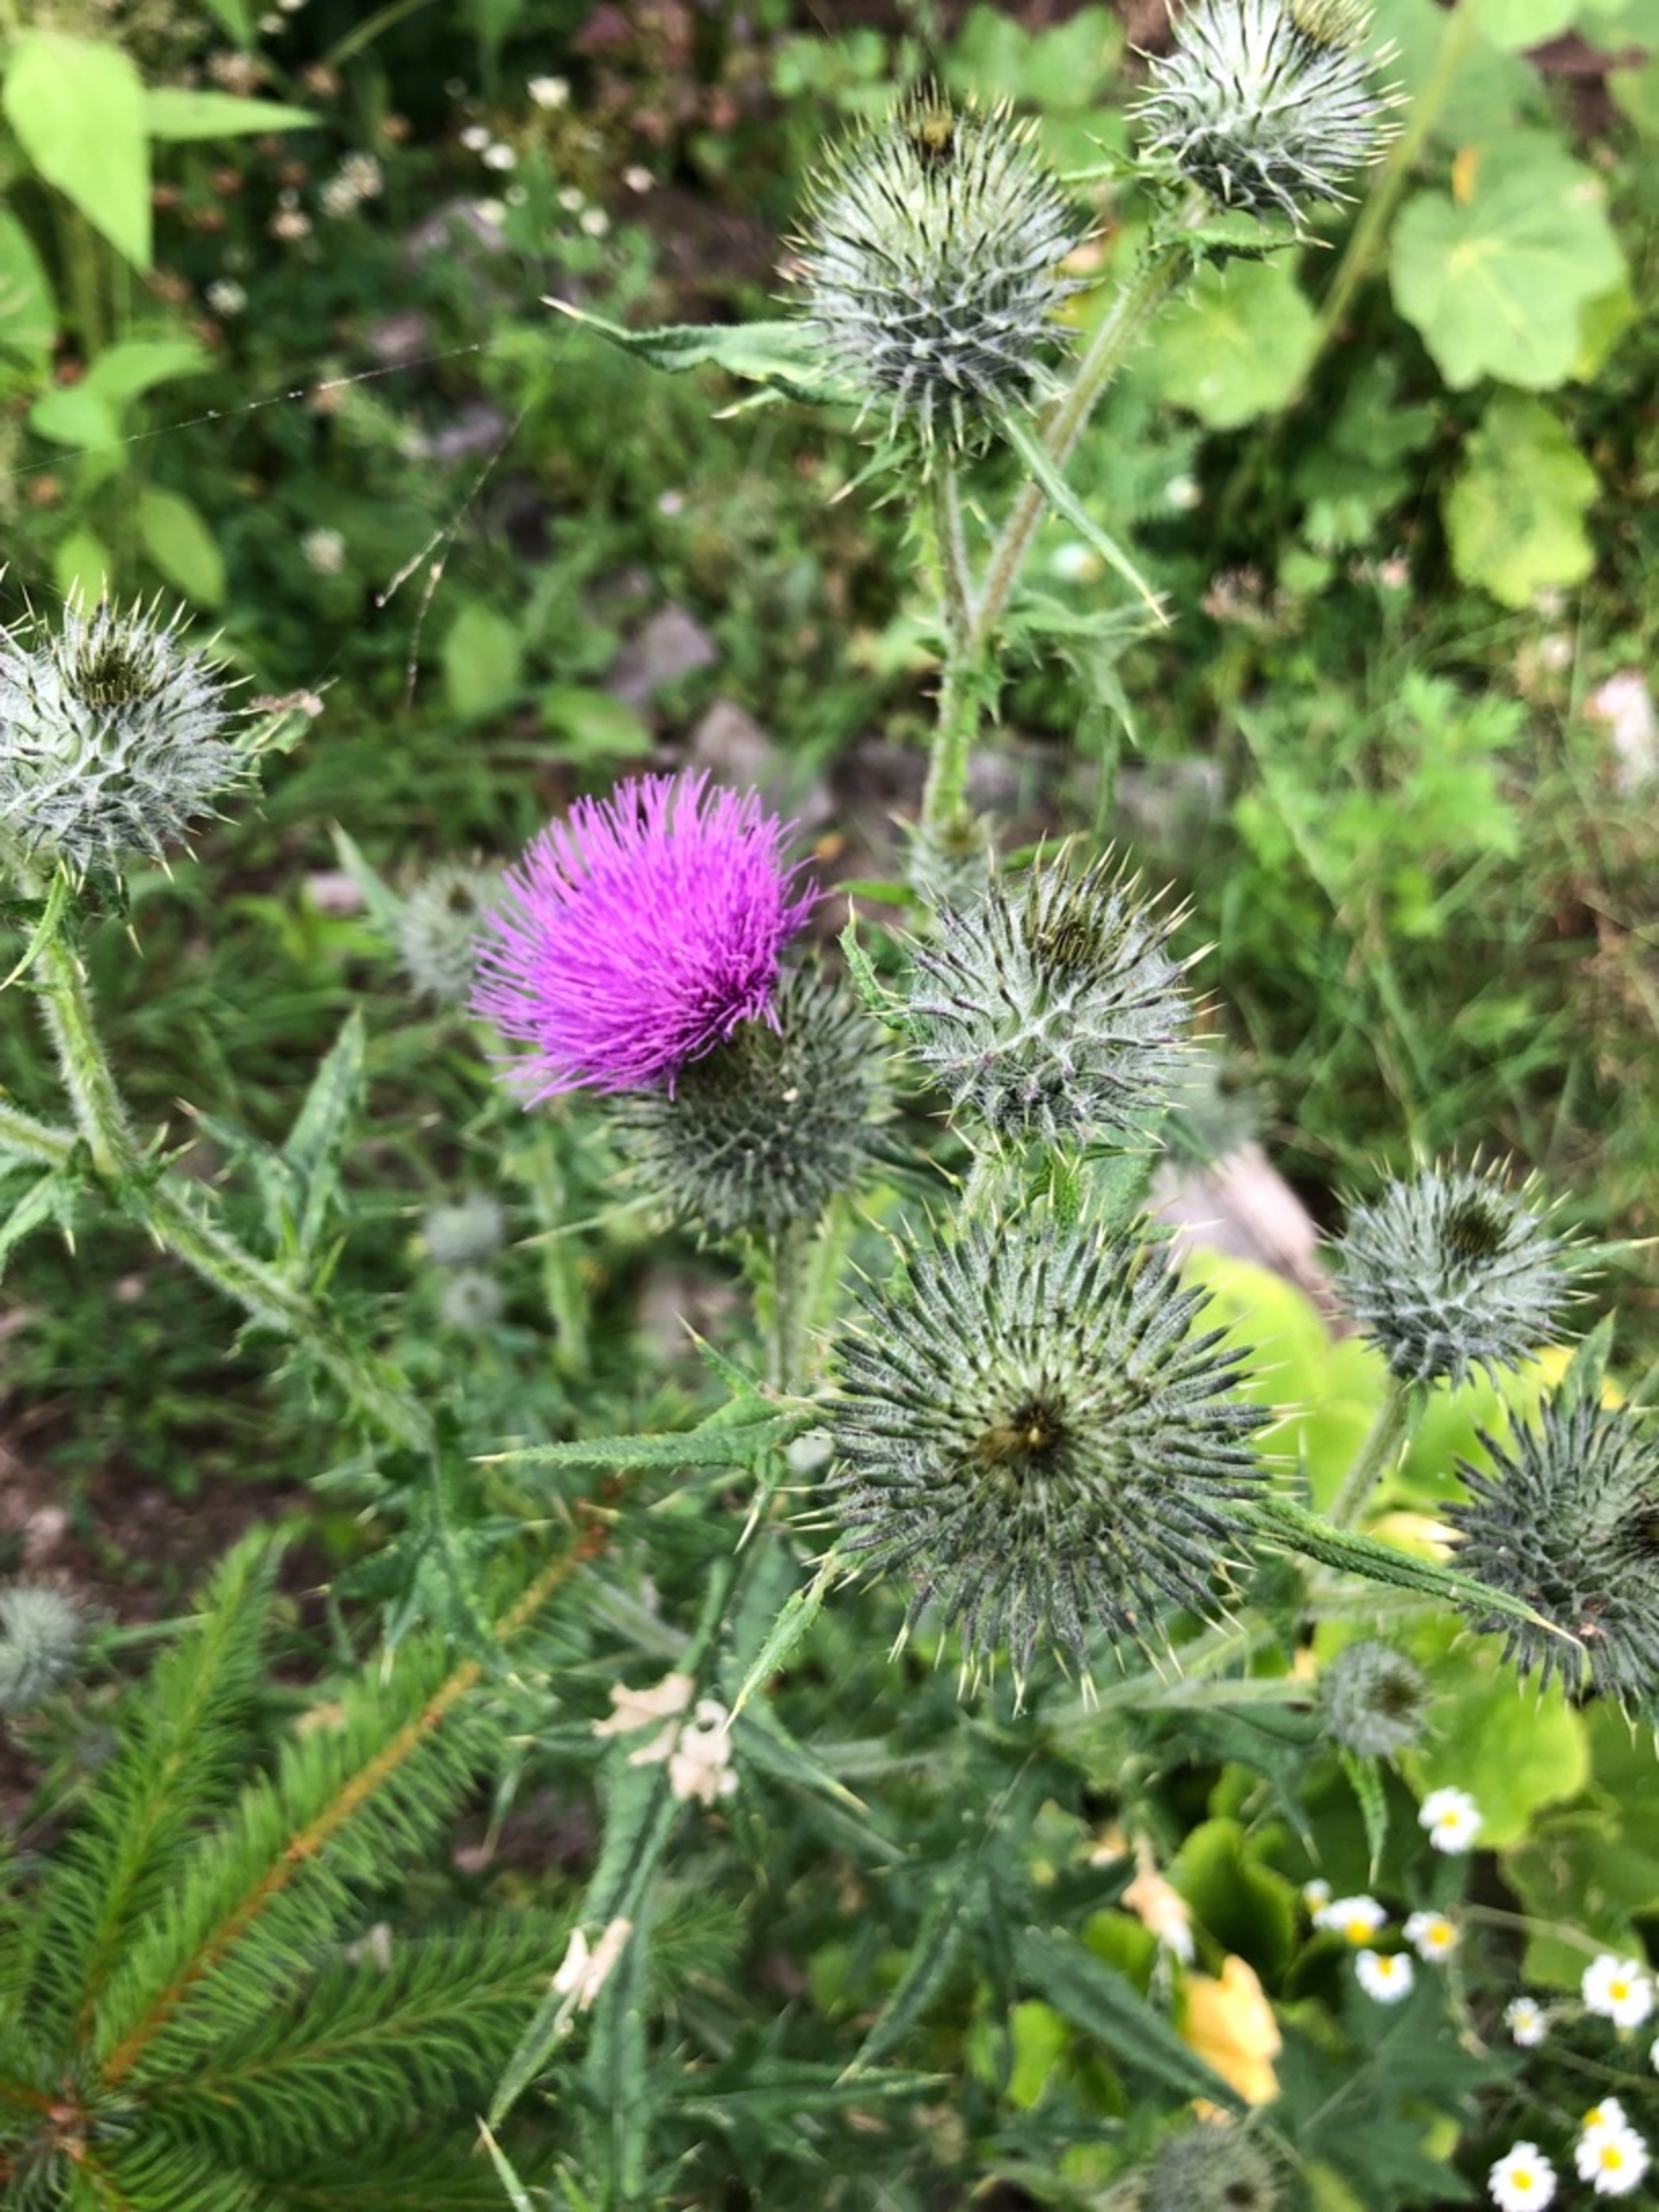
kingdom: Plantae
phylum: Tracheophyta
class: Magnoliopsida
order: Asterales
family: Asteraceae
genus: Cirsium
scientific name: Cirsium vulgare
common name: Horse-tidsel
